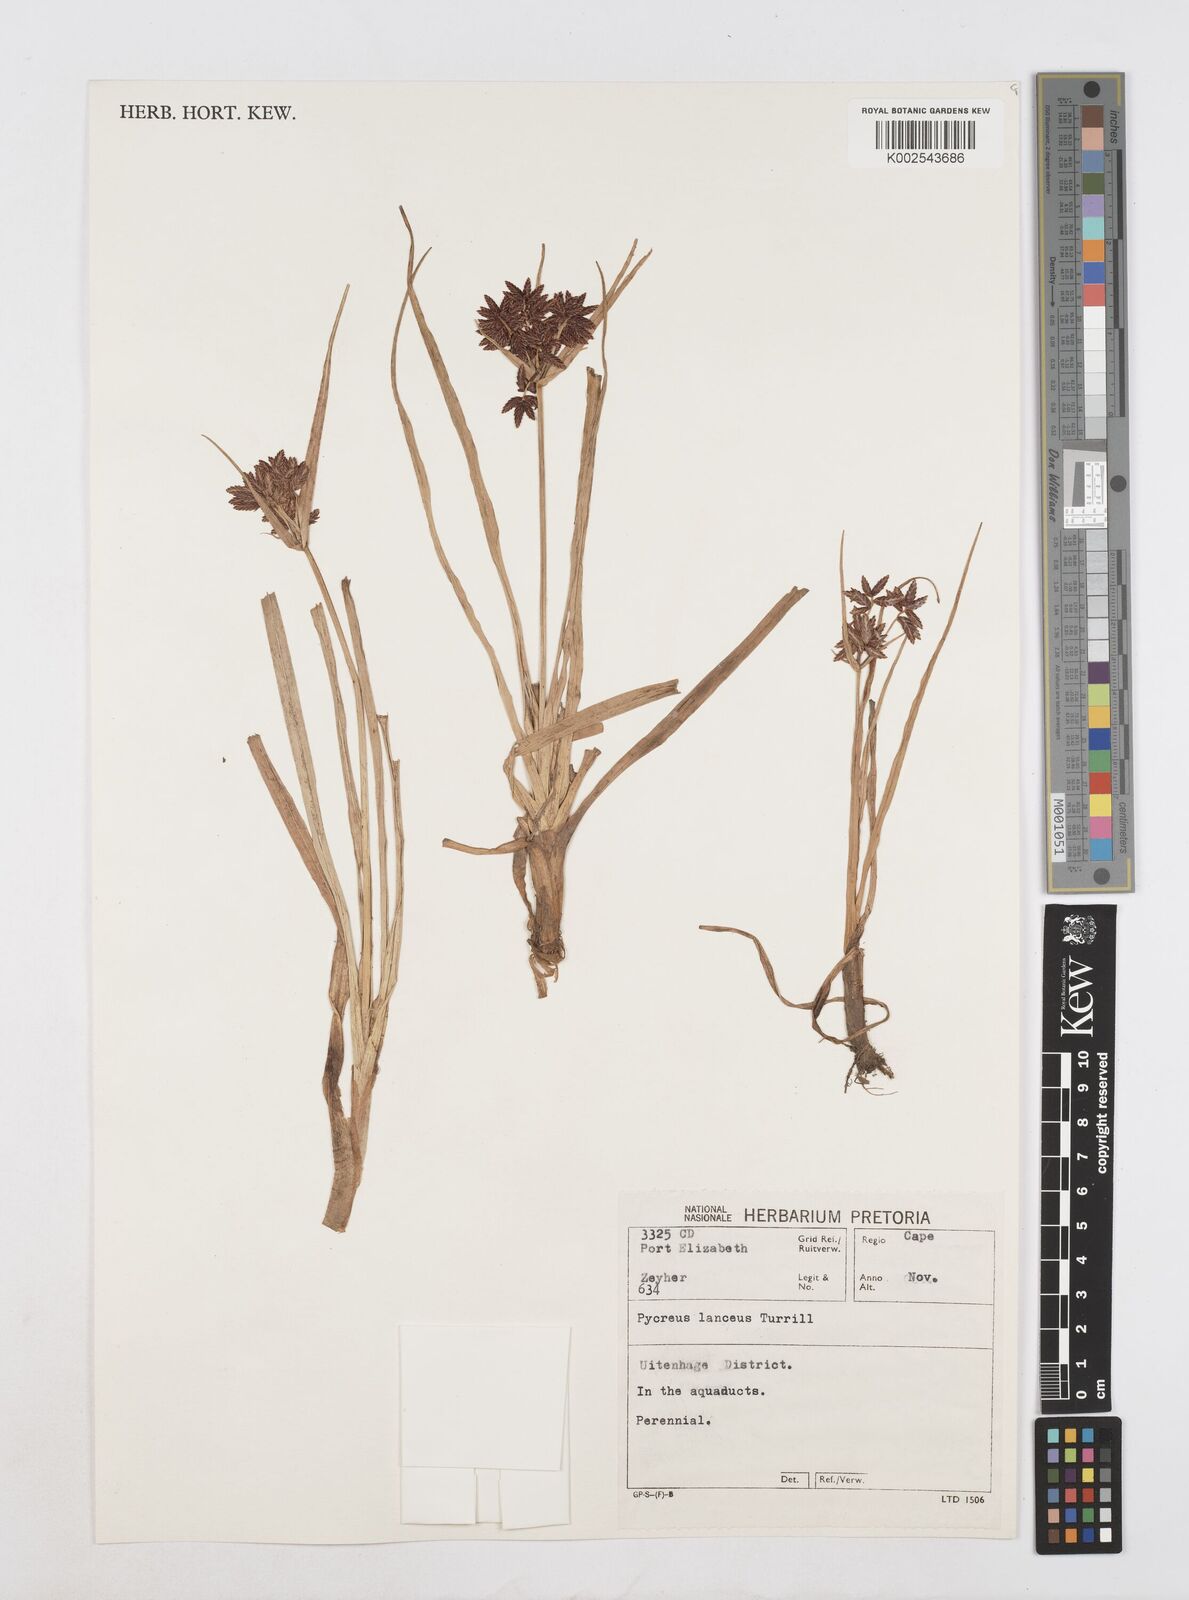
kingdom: Plantae
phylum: Tracheophyta
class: Liliopsida
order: Poales
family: Cyperaceae
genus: Cyperus
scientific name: Cyperus nitidus
